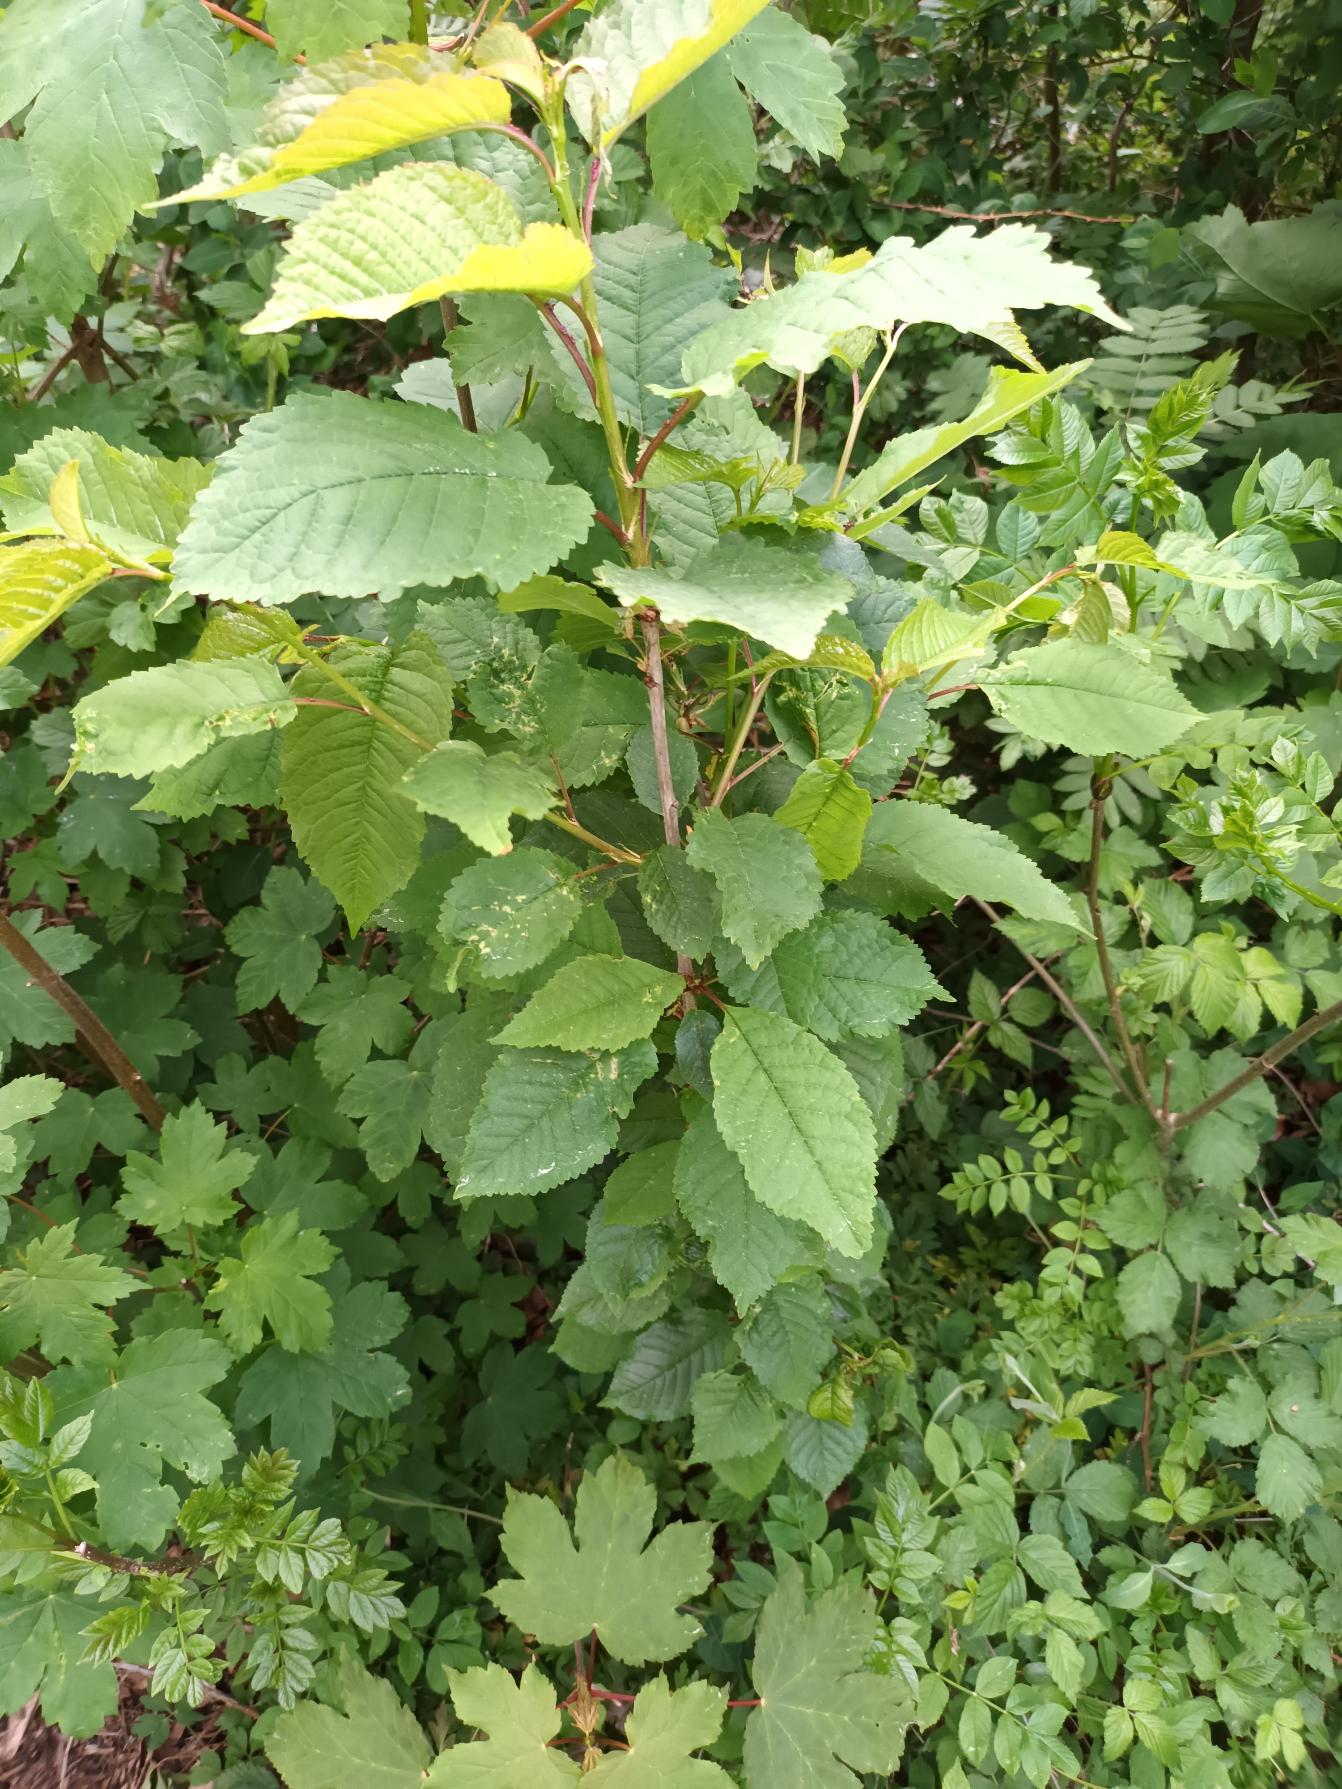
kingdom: Plantae
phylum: Tracheophyta
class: Magnoliopsida
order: Rosales
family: Rosaceae
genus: Prunus
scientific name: Prunus avium
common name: Fugle-kirsebær
